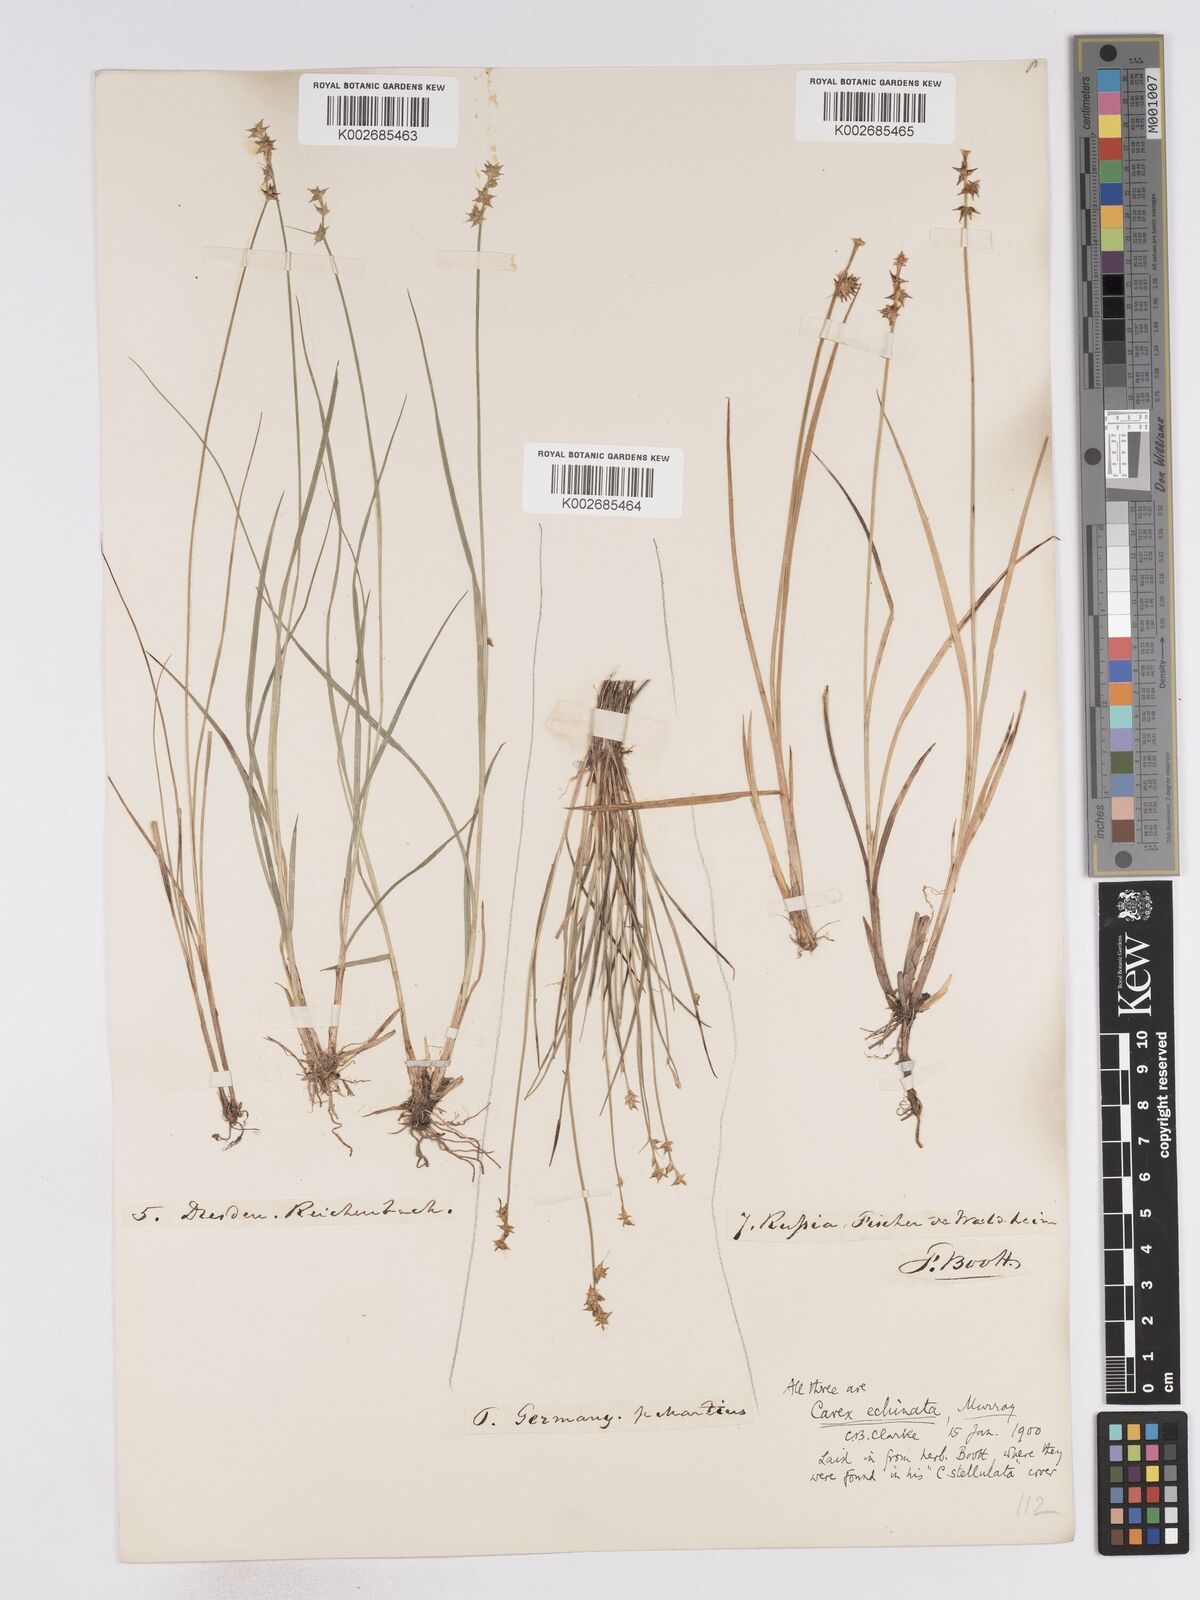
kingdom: Plantae
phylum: Tracheophyta
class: Liliopsida
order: Poales
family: Cyperaceae
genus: Carex
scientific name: Carex echinata
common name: Star sedge
